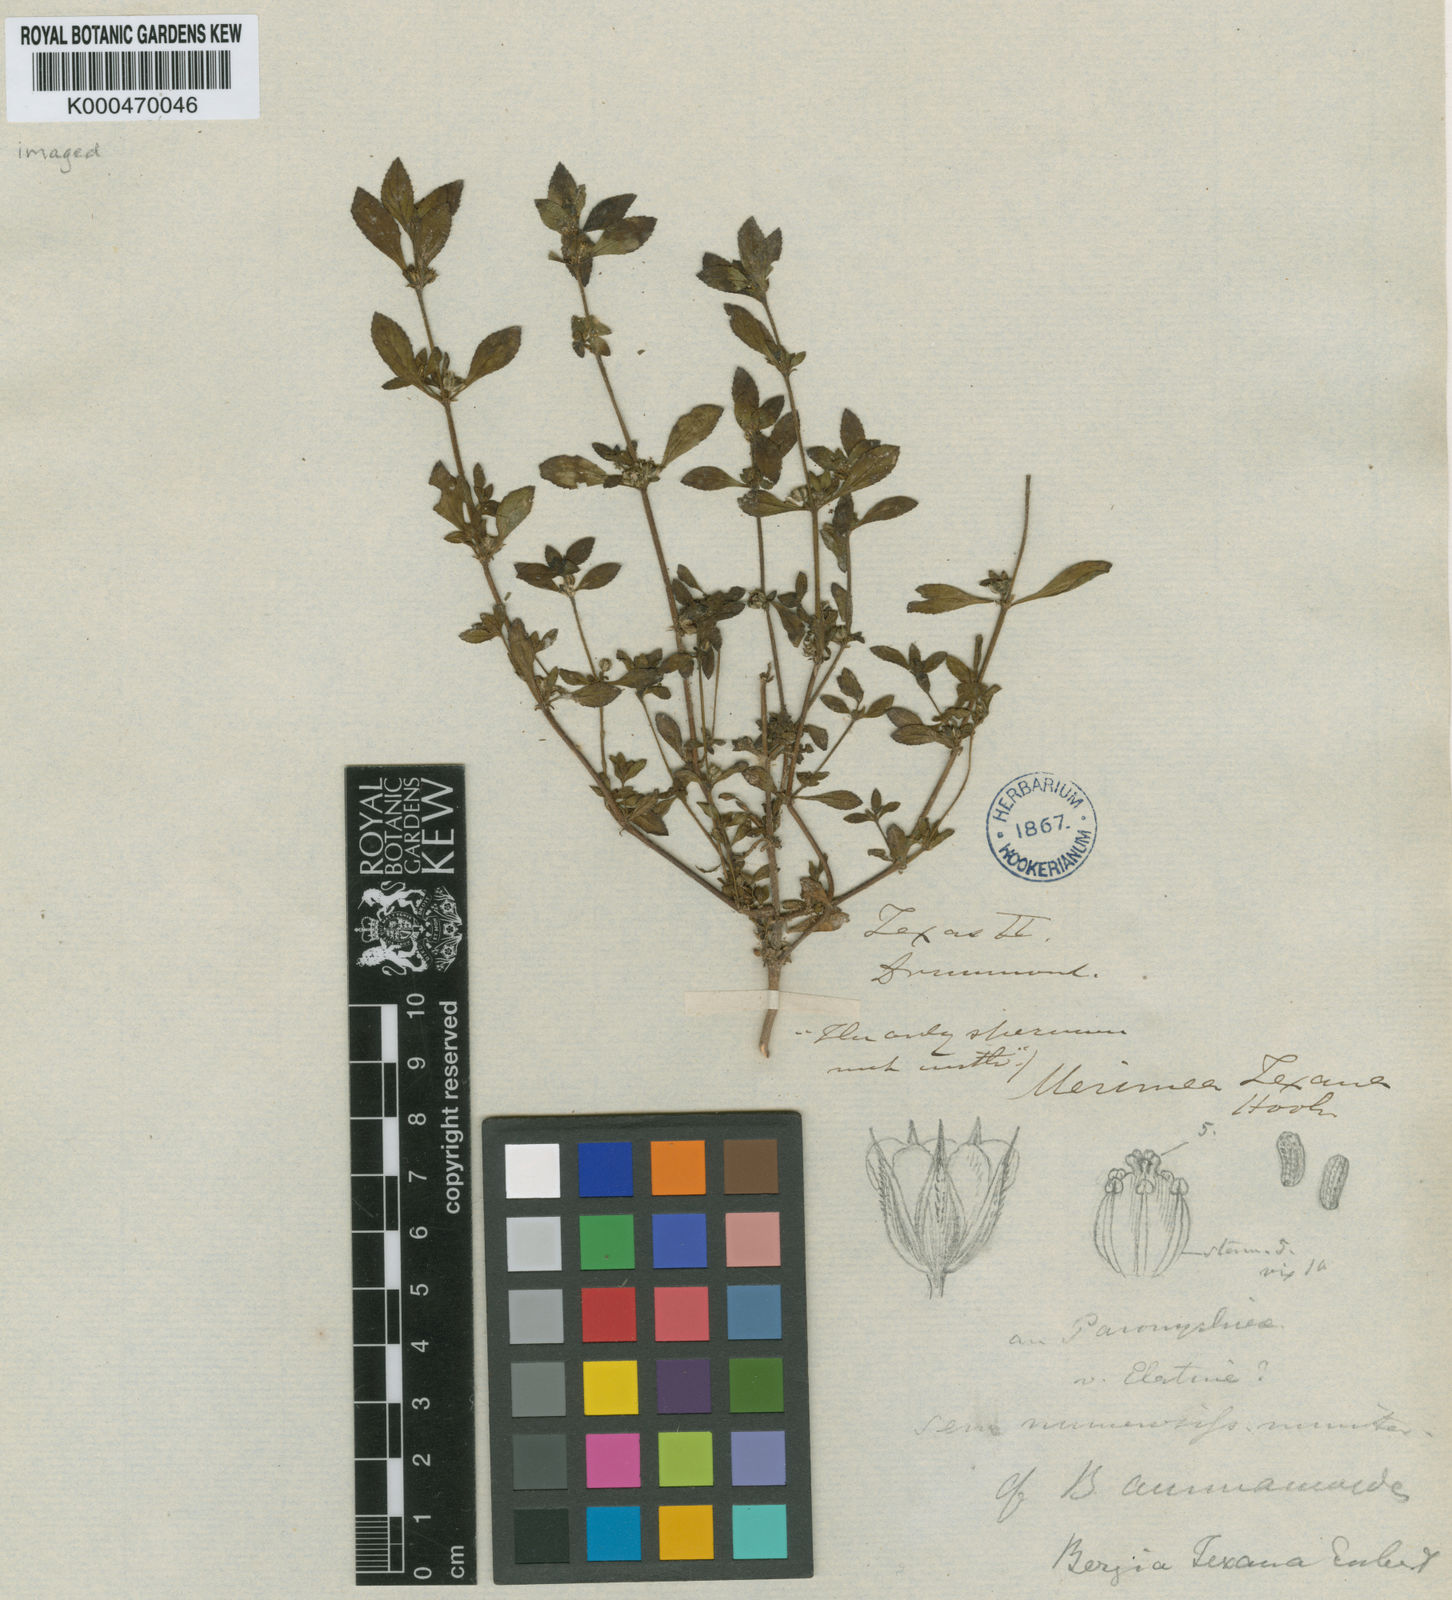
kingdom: Plantae
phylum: Tracheophyta
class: Magnoliopsida
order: Malpighiales
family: Elatinaceae
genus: Bergia
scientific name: Bergia
